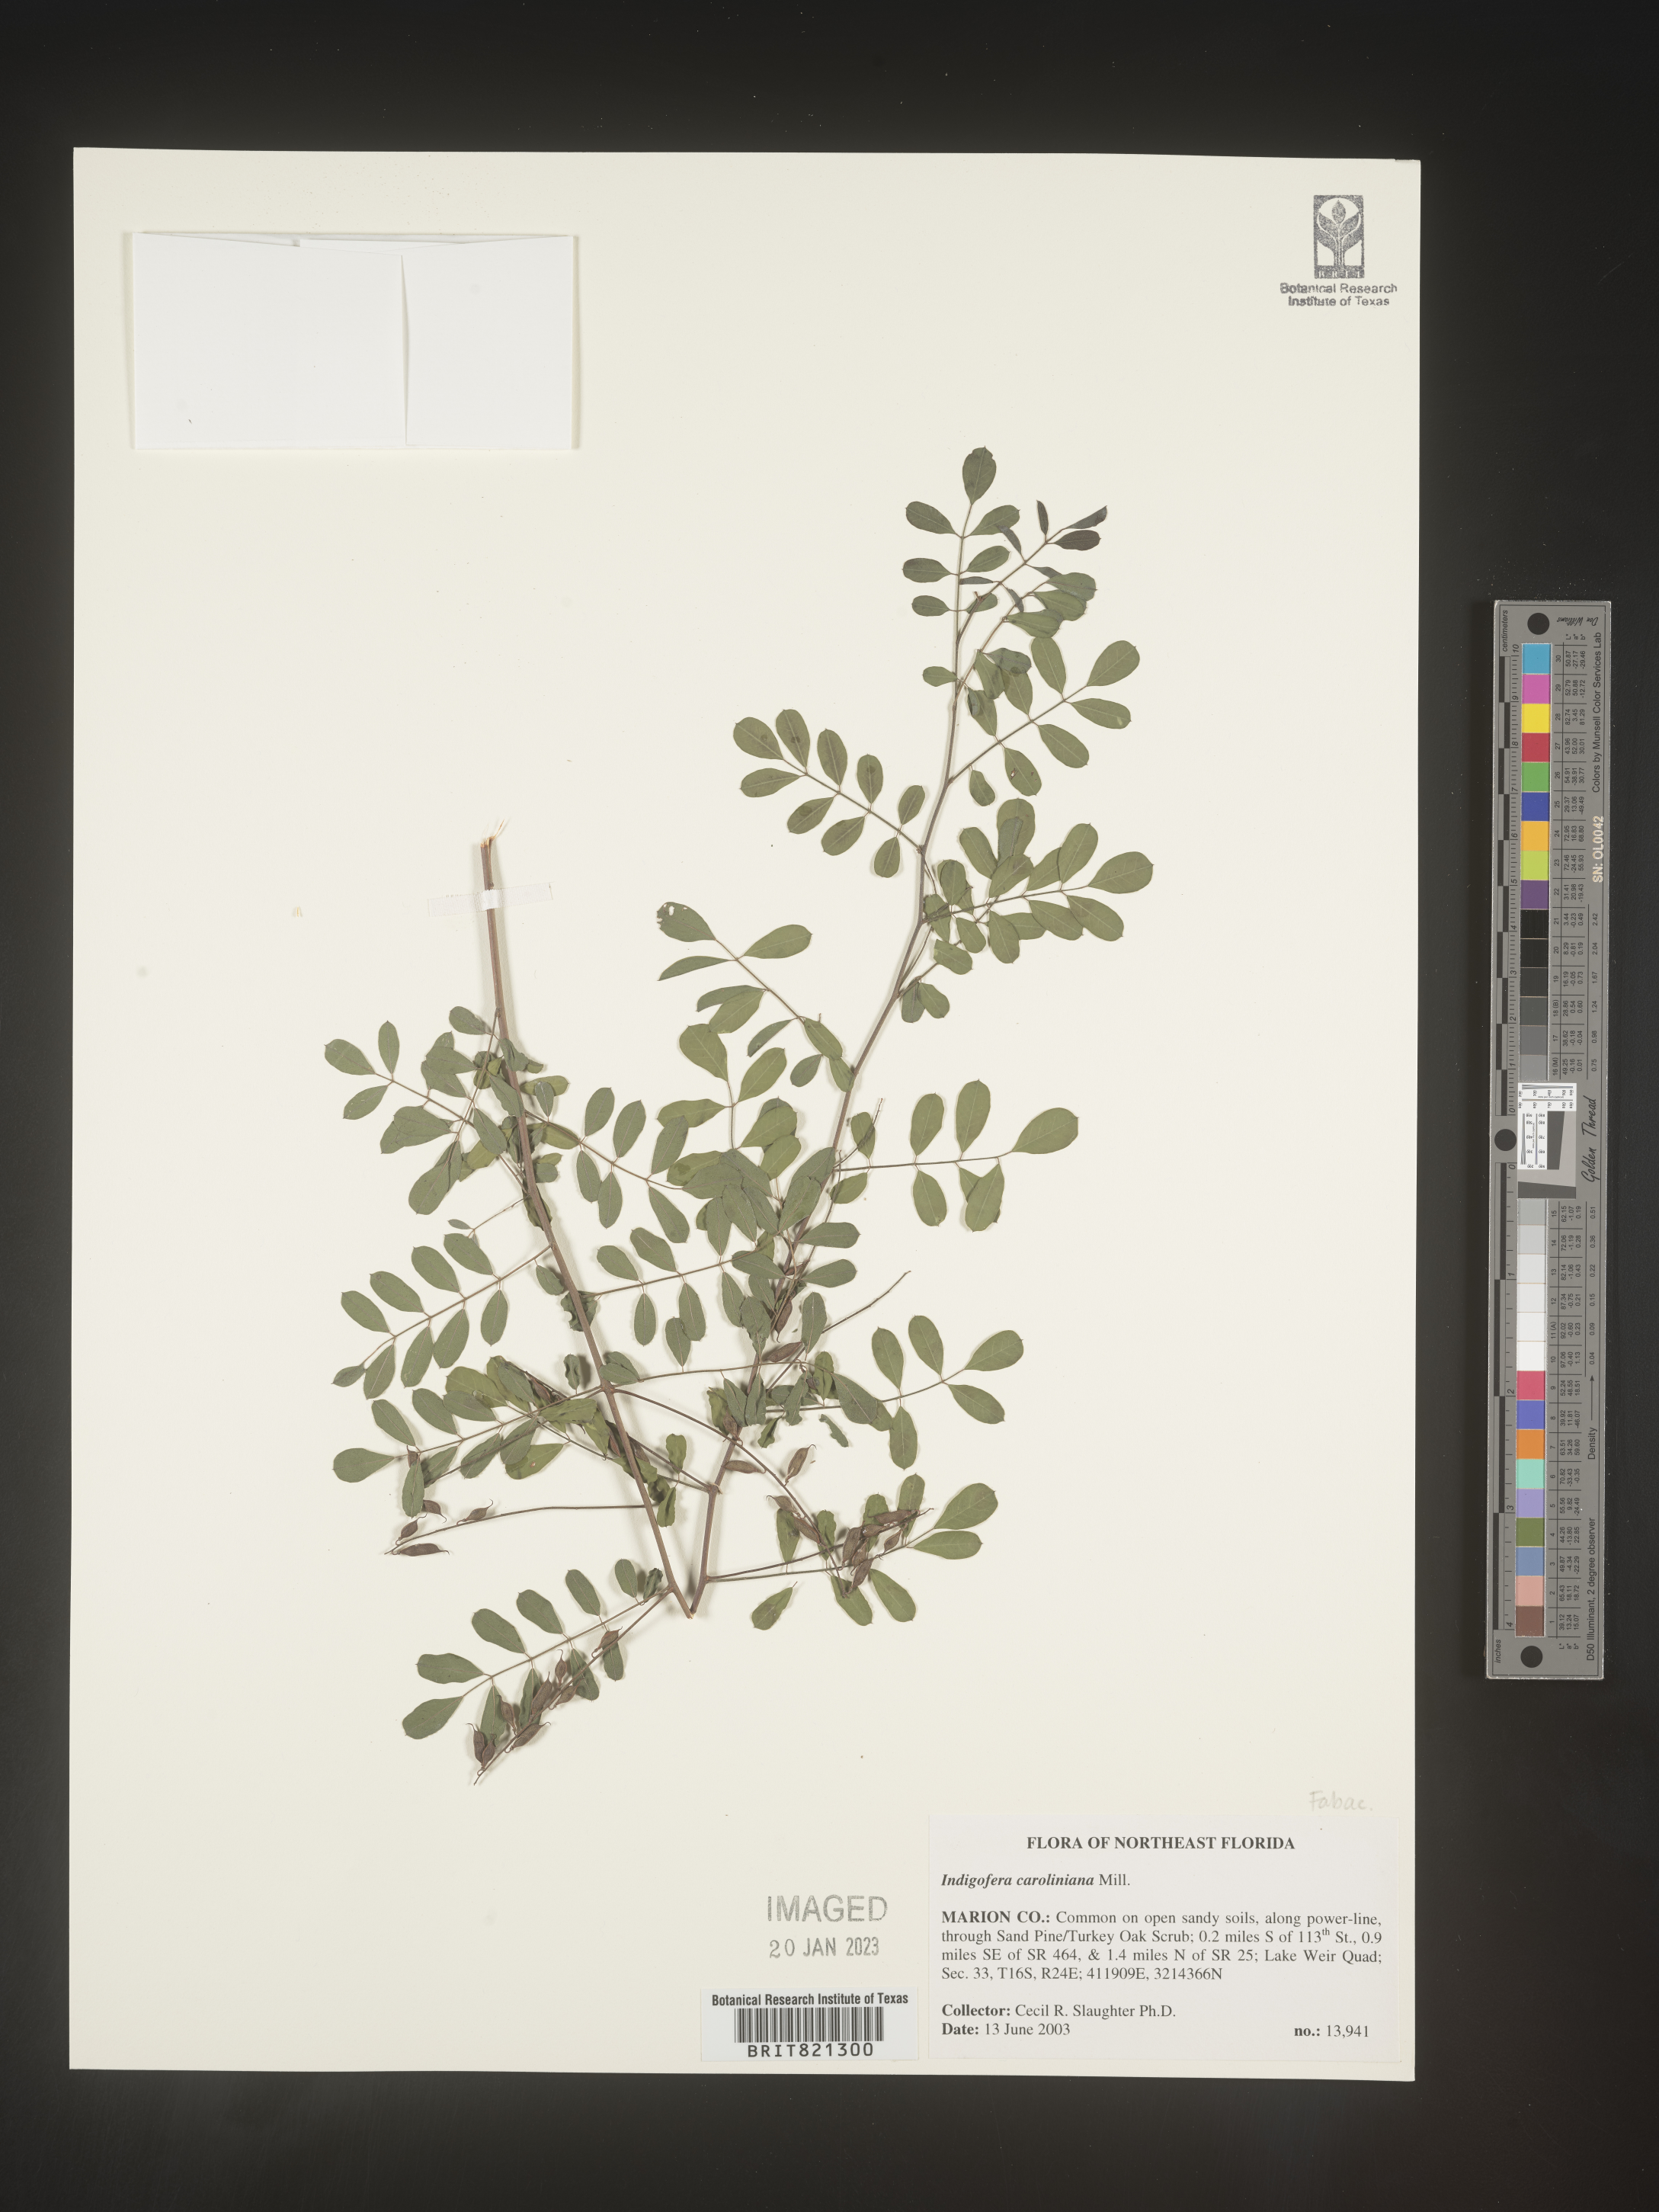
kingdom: Plantae
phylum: Tracheophyta
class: Magnoliopsida
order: Fabales
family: Fabaceae
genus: Indigofera
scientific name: Indigofera
